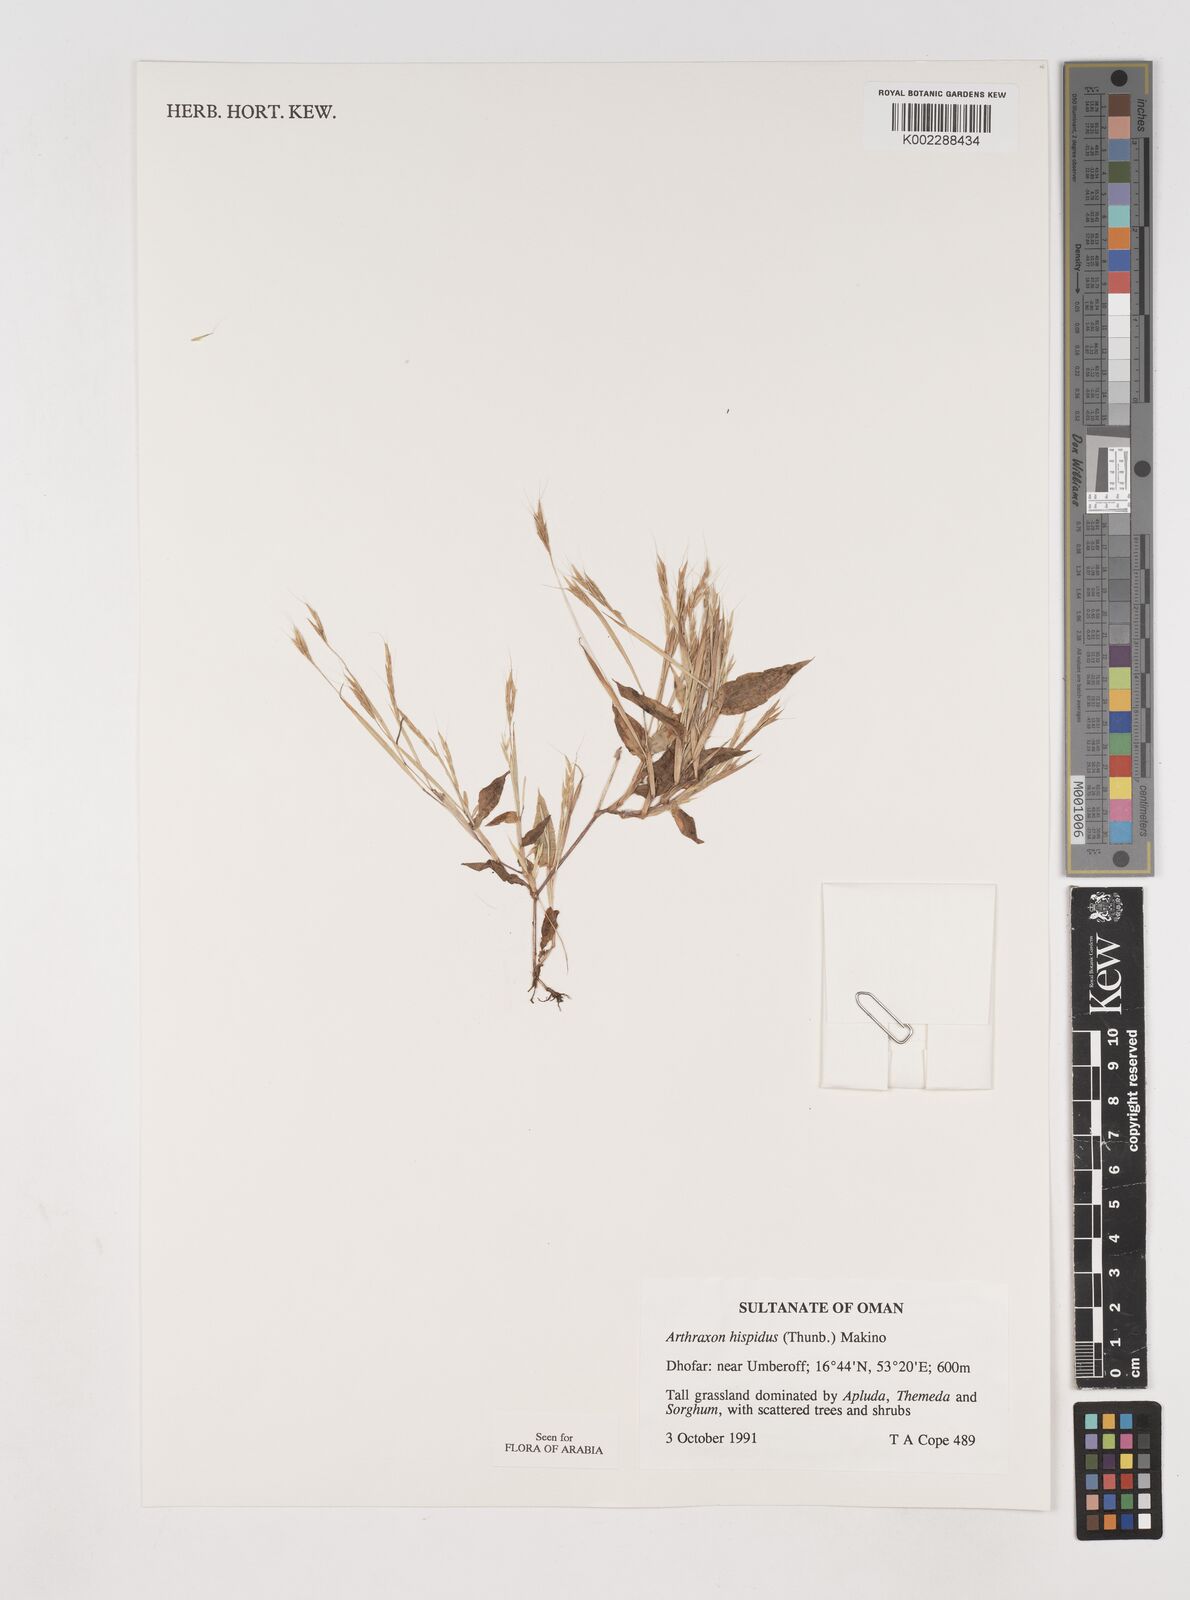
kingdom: Plantae
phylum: Tracheophyta
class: Liliopsida
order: Poales
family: Poaceae
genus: Arthraxon
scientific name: Arthraxon hispidus
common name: Small carpgrass
